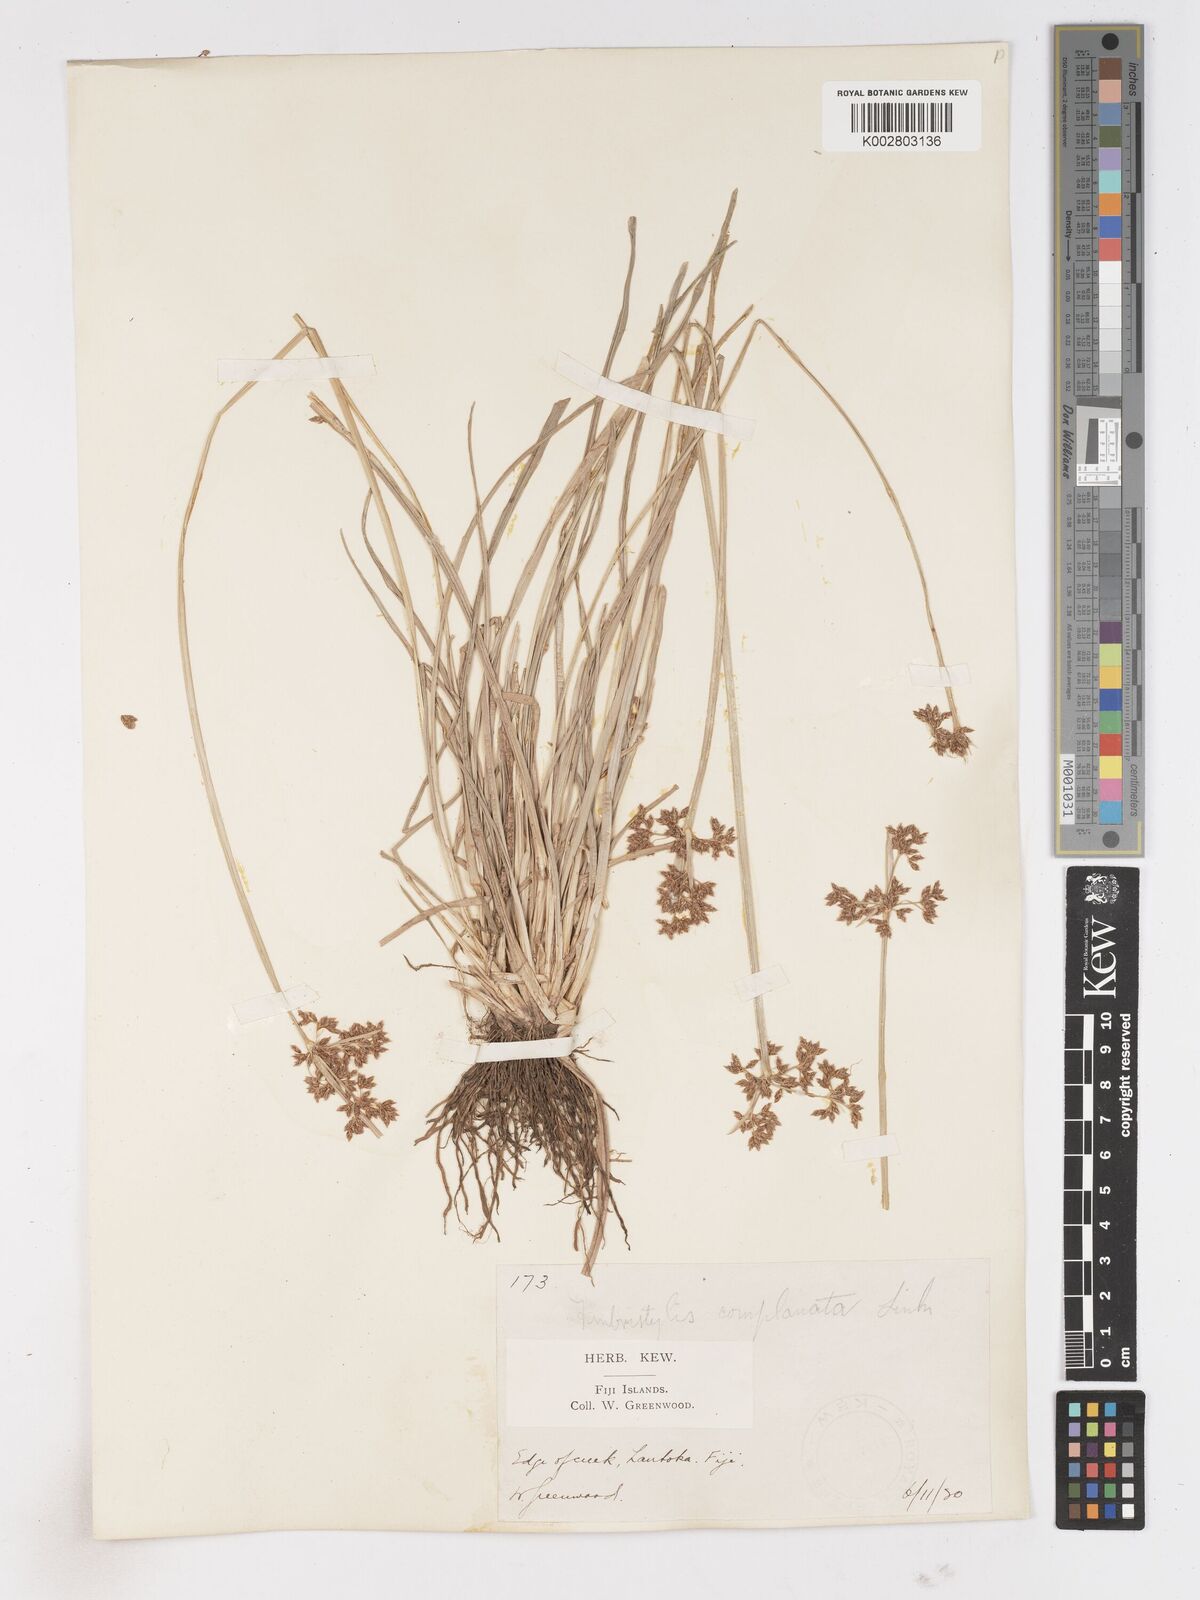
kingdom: Plantae
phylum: Tracheophyta
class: Liliopsida
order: Poales
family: Cyperaceae
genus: Fimbristylis
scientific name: Fimbristylis complanata
